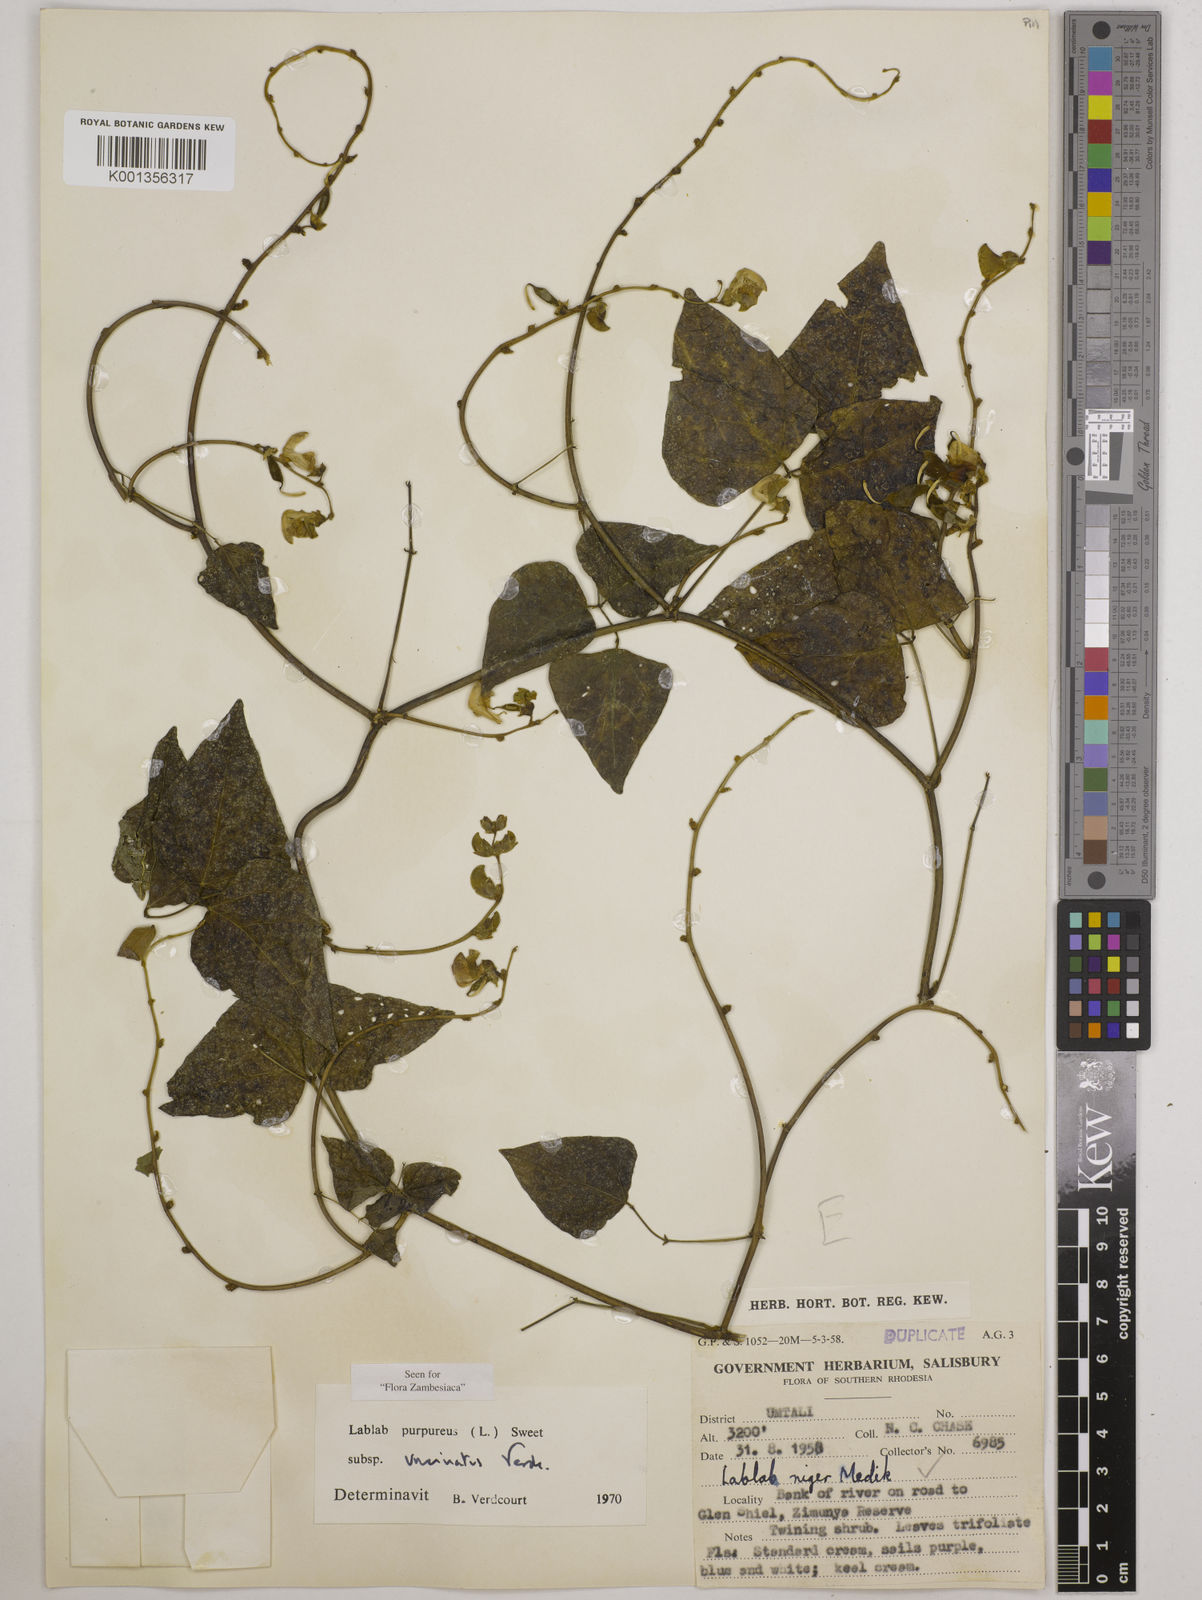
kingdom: Plantae
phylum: Tracheophyta
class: Magnoliopsida
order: Fabales
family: Fabaceae
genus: Lablab
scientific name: Lablab purpureus
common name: Lablab-bean
